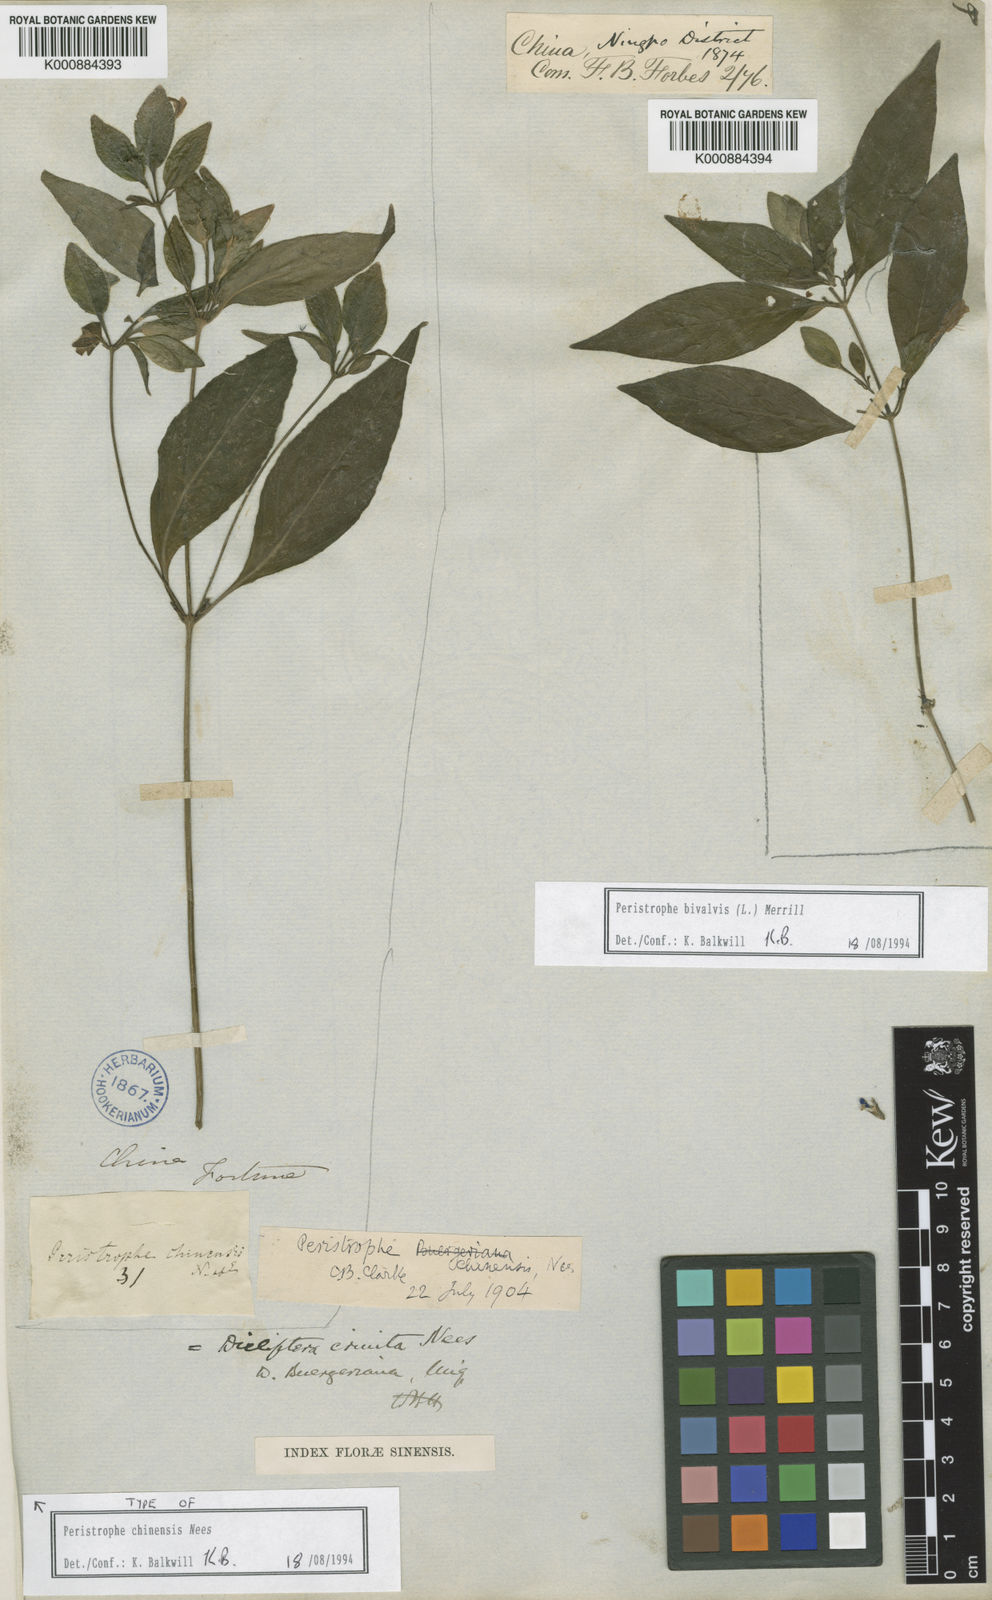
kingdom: Plantae
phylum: Tracheophyta
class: Magnoliopsida
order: Lamiales
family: Acanthaceae
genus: Dicliptera
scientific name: Dicliptera japonica
